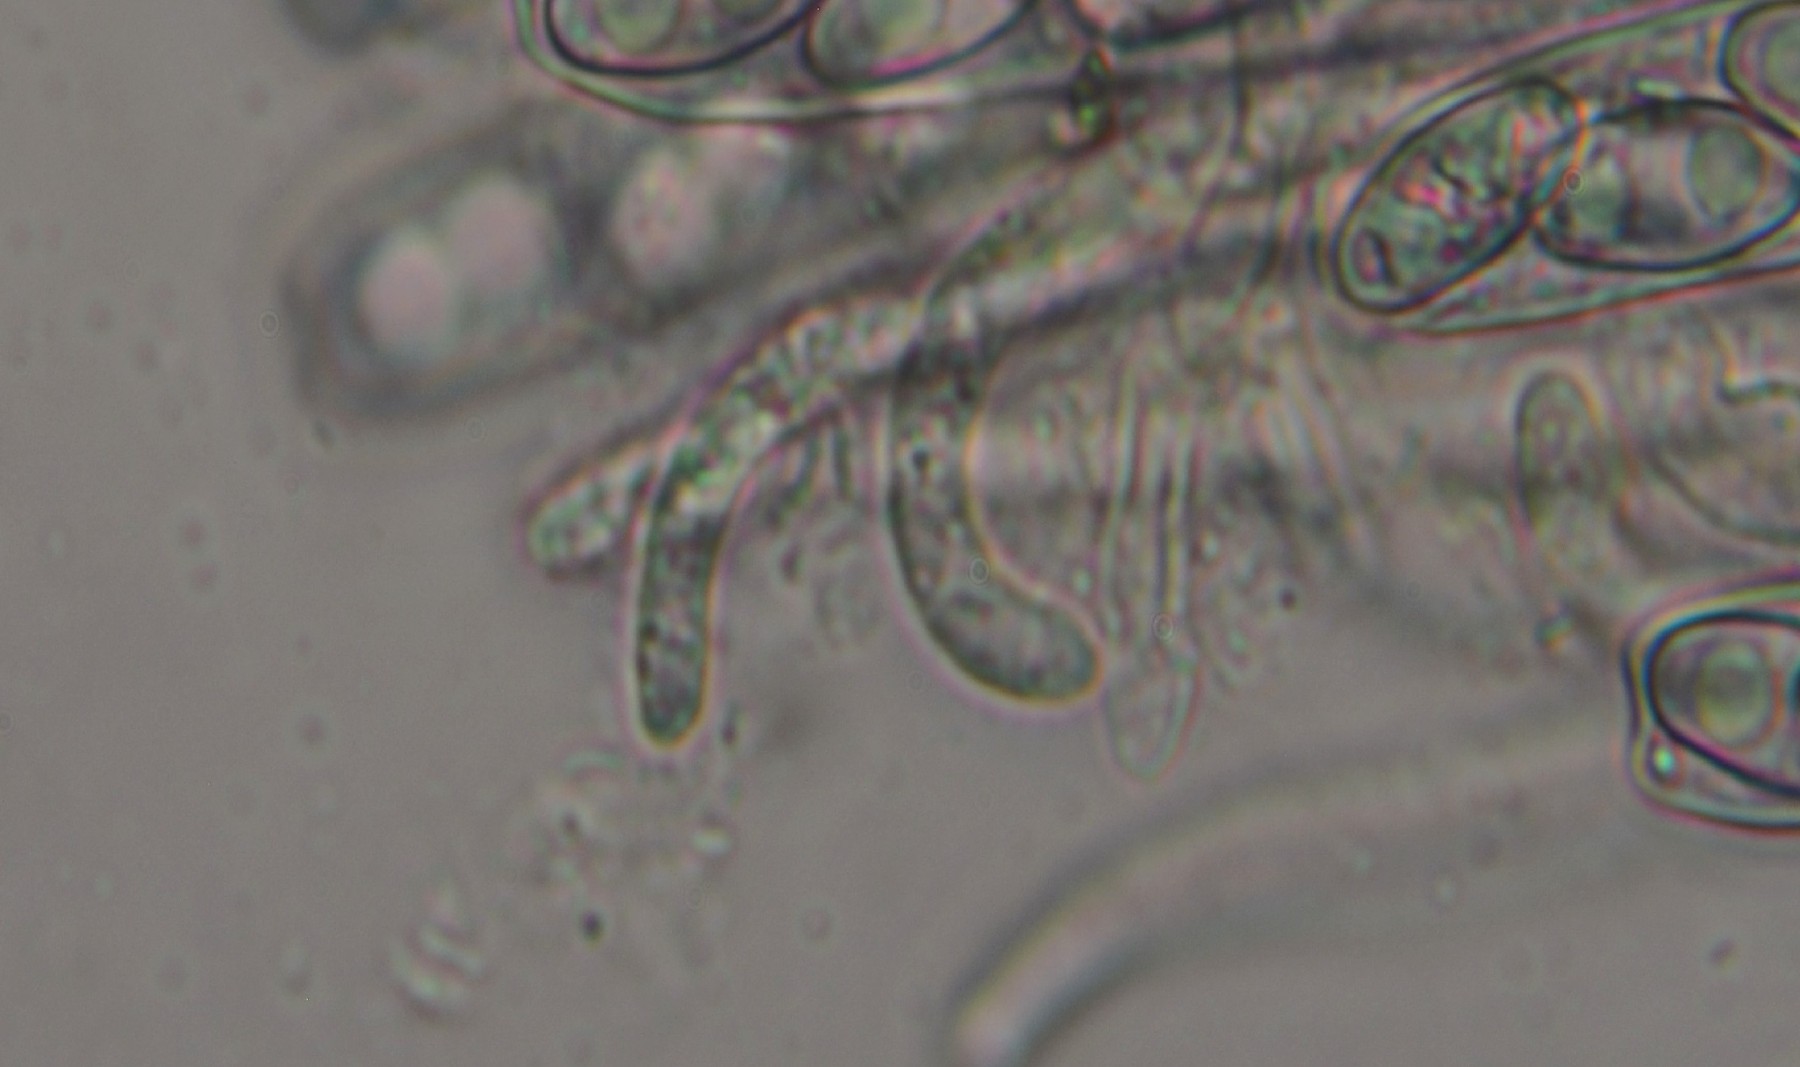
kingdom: Fungi
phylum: Ascomycota
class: Pezizomycetes
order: Pezizales
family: Otideaceae
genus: Otidea
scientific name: Otidea bufonia
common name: brun ørebæger
